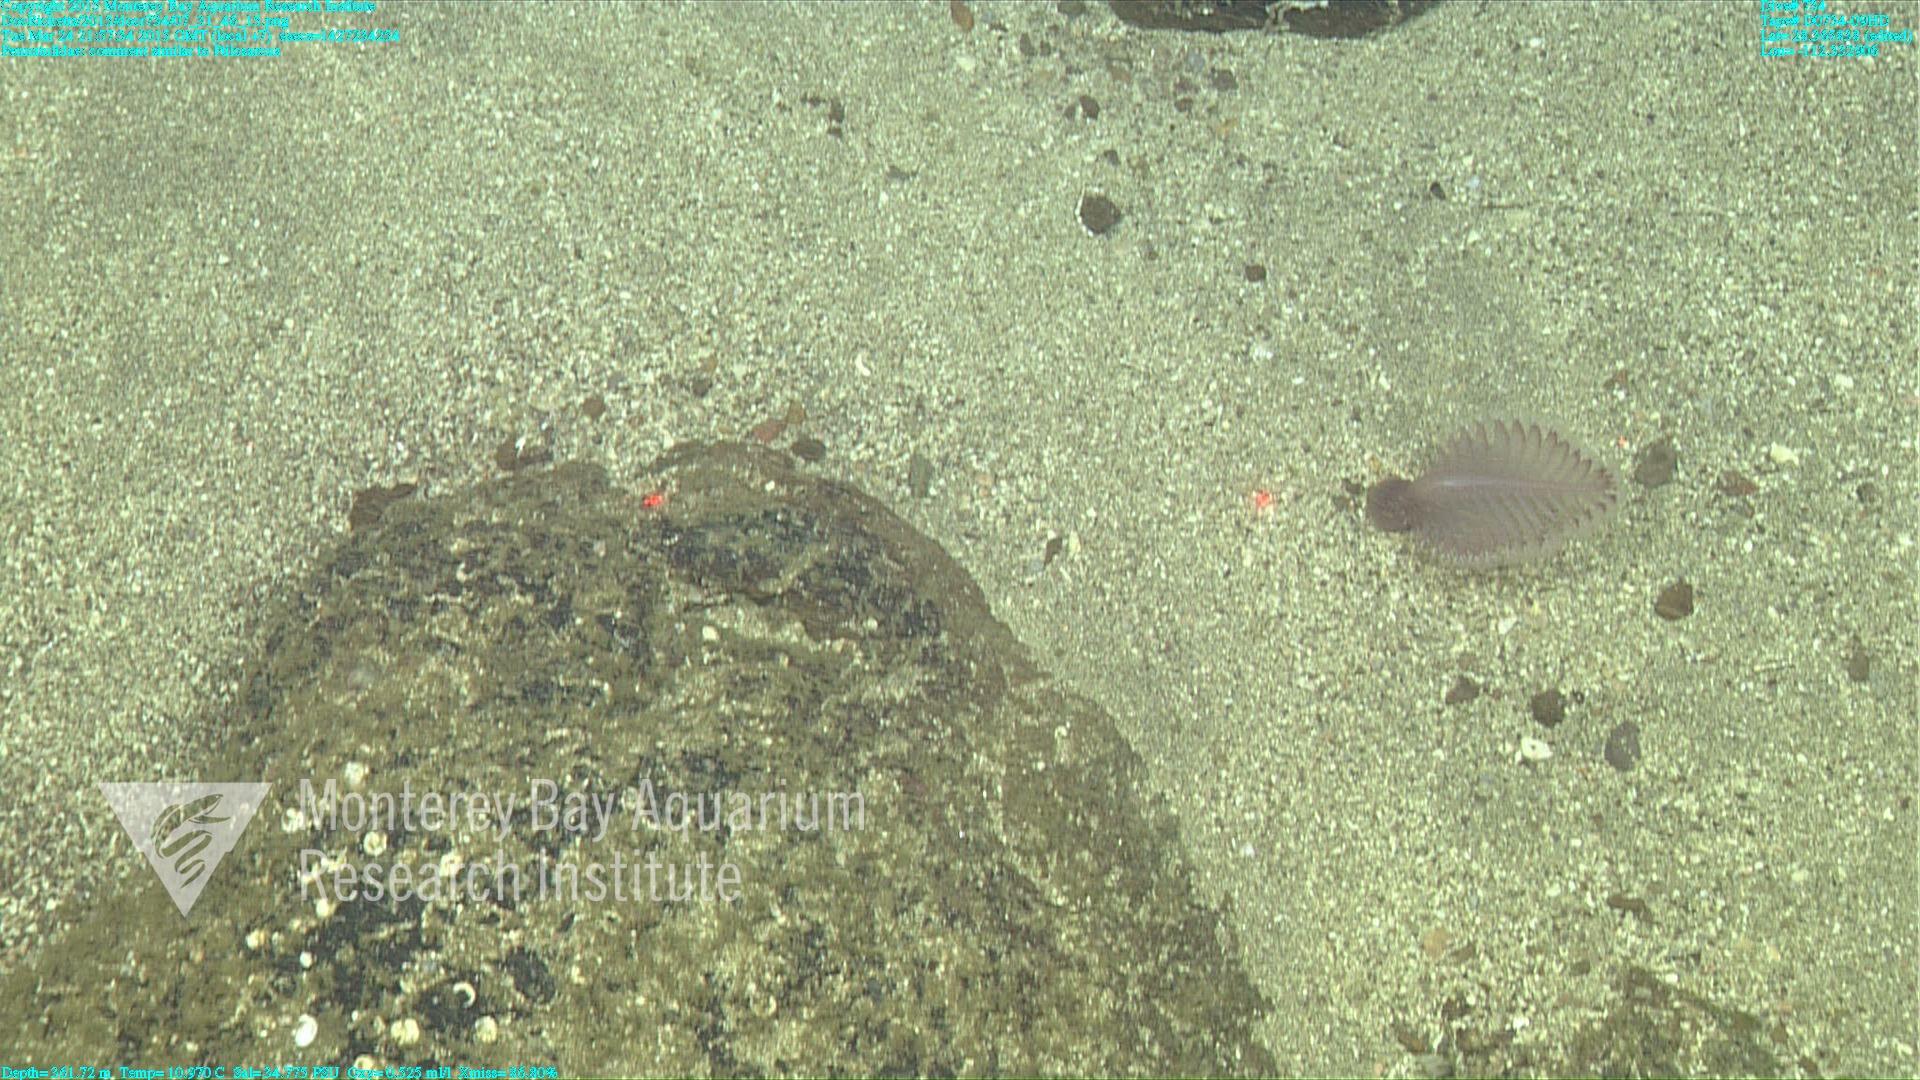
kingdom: Animalia
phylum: Cnidaria
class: Anthozoa
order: Scleralcyonacea
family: Pennatulidae
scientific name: Pennatulidae
